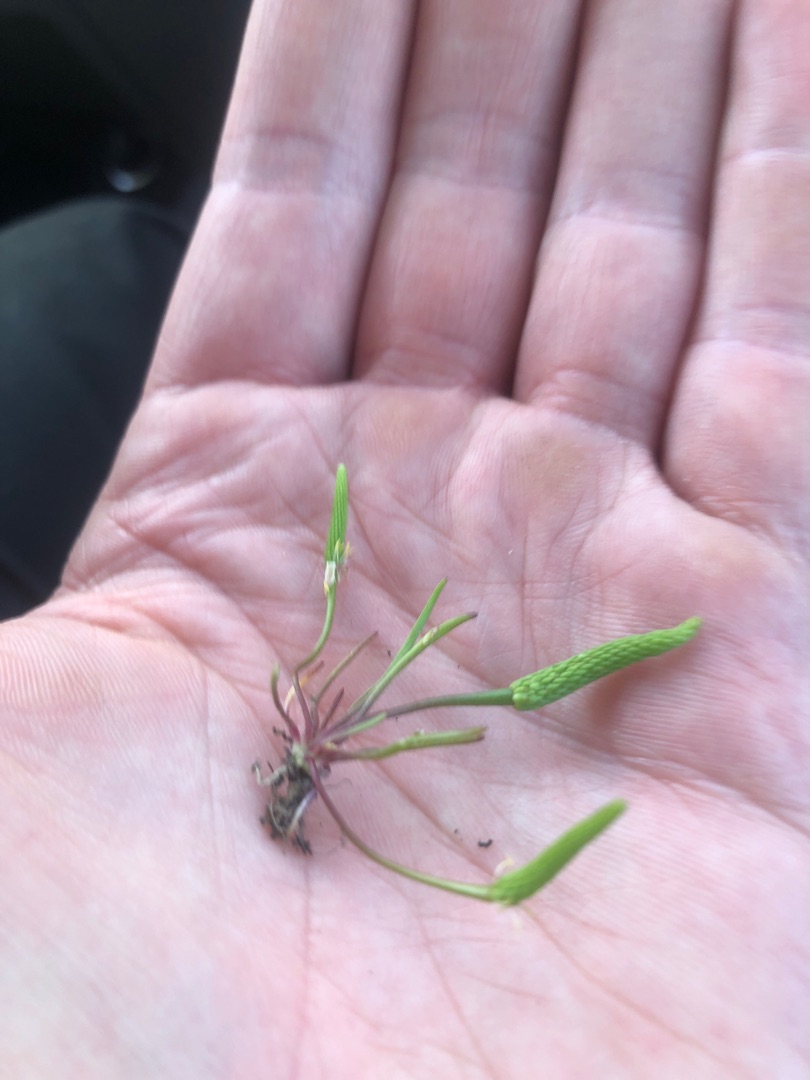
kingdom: Plantae
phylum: Tracheophyta
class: Magnoliopsida
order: Ranunculales
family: Ranunculaceae
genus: Myosurus
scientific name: Myosurus minimus
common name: Musehale
